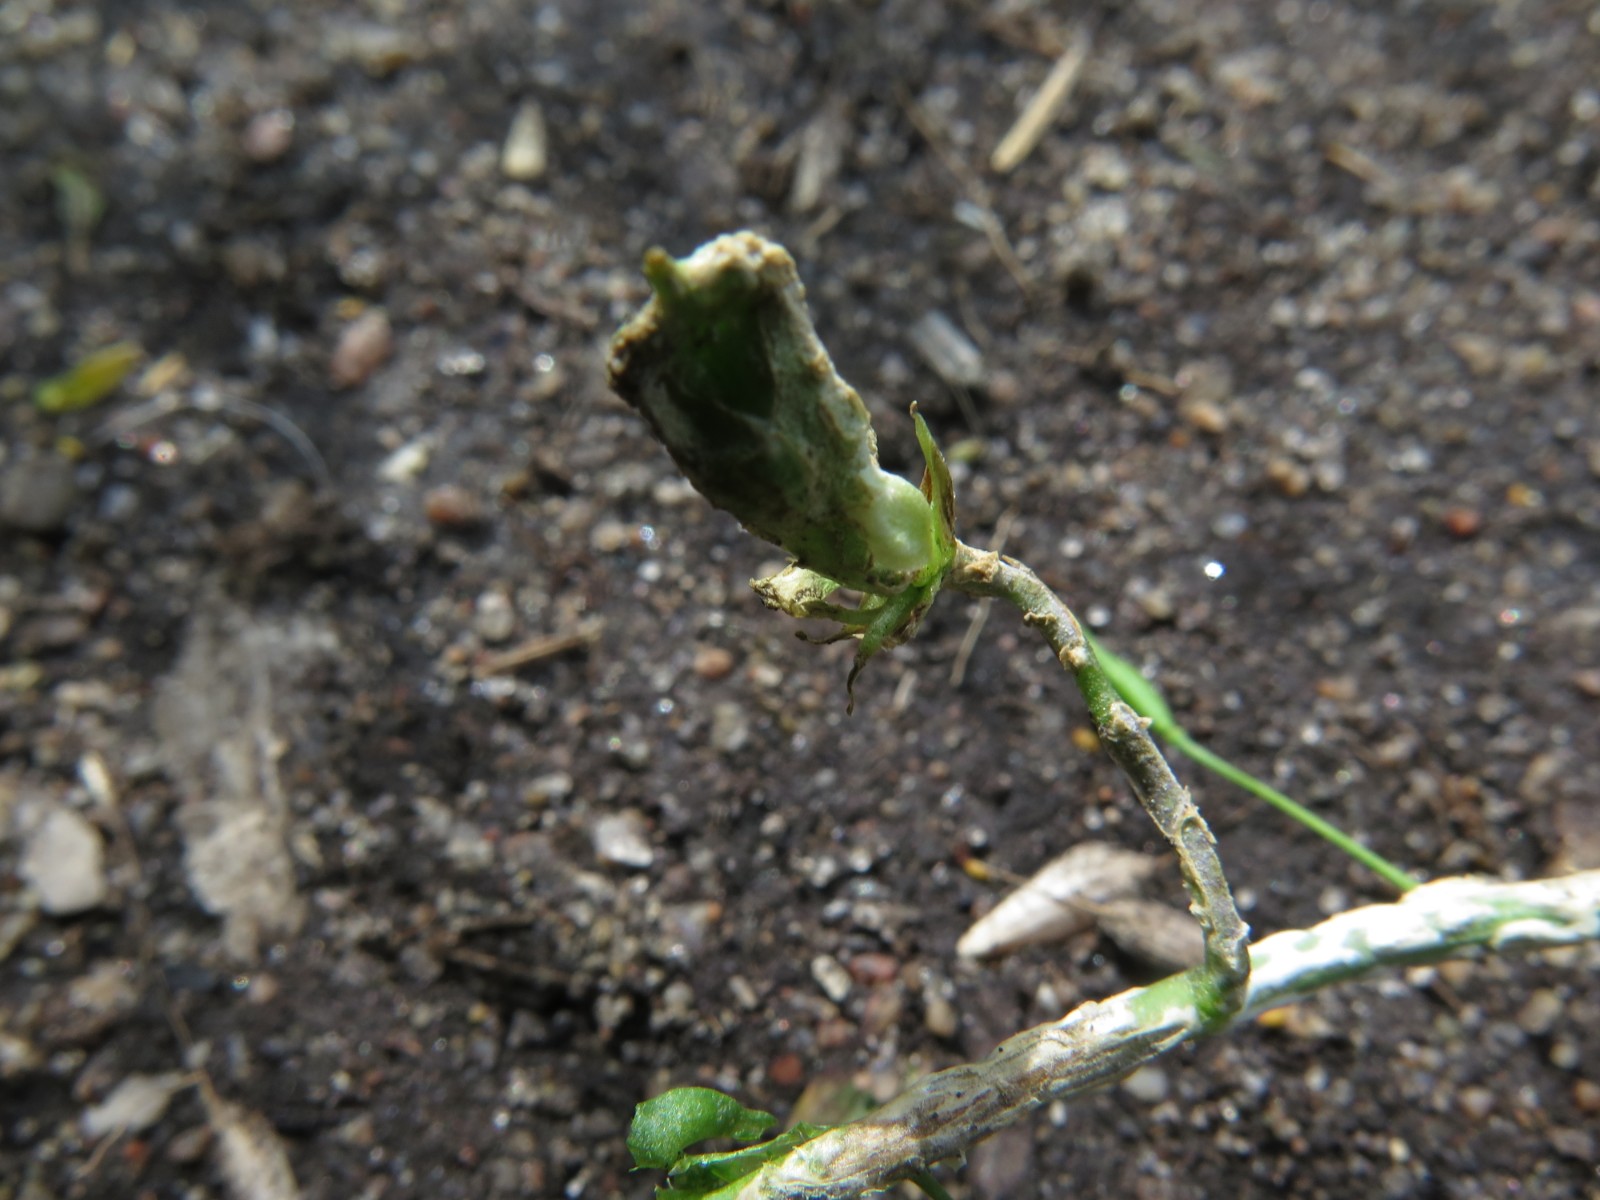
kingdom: Chromista
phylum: Oomycota
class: Peronosporea
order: Albuginales
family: Albuginaceae
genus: Albugo
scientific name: Albugo candida
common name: Crucifer white blister
